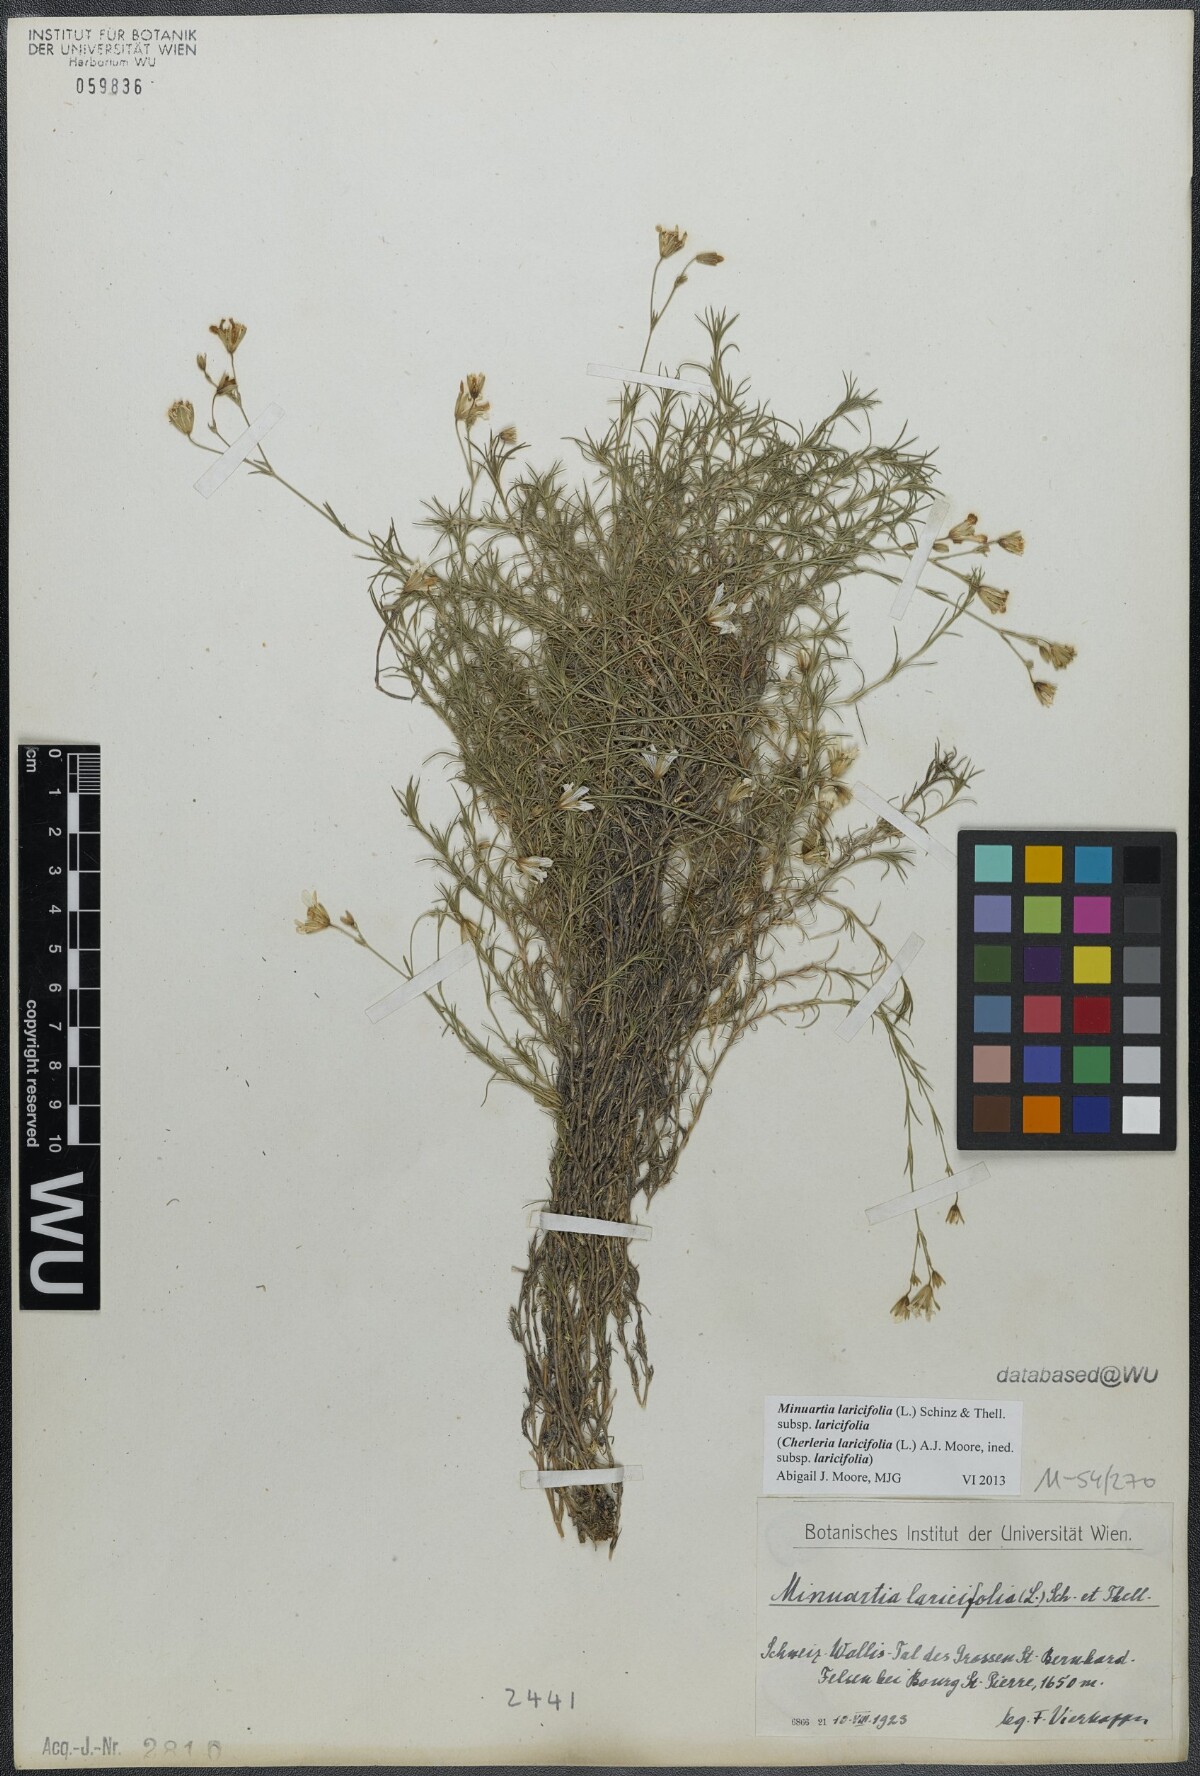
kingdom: Plantae
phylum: Tracheophyta
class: Magnoliopsida
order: Caryophyllales
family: Caryophyllaceae
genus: Cherleria
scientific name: Cherleria laricifolia
